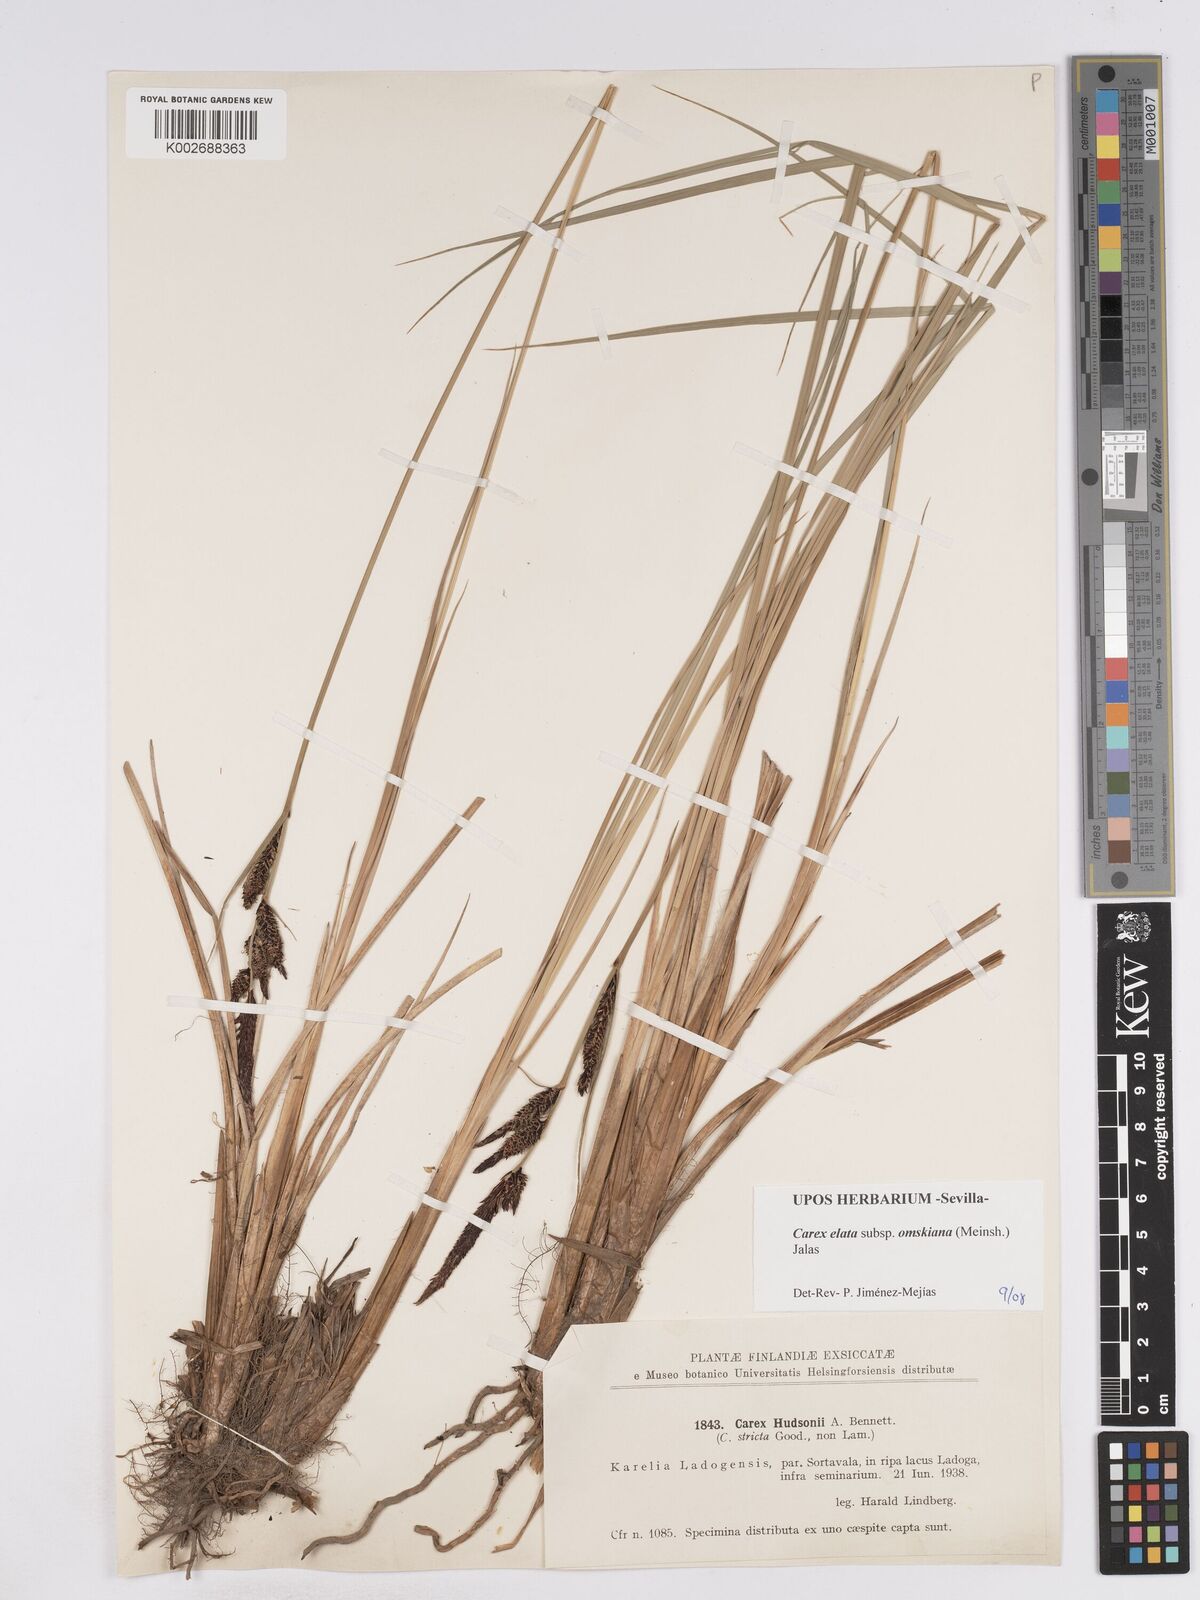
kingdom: Plantae
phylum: Tracheophyta
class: Liliopsida
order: Poales
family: Cyperaceae
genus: Carex
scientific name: Carex elata
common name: Tufted sedge
